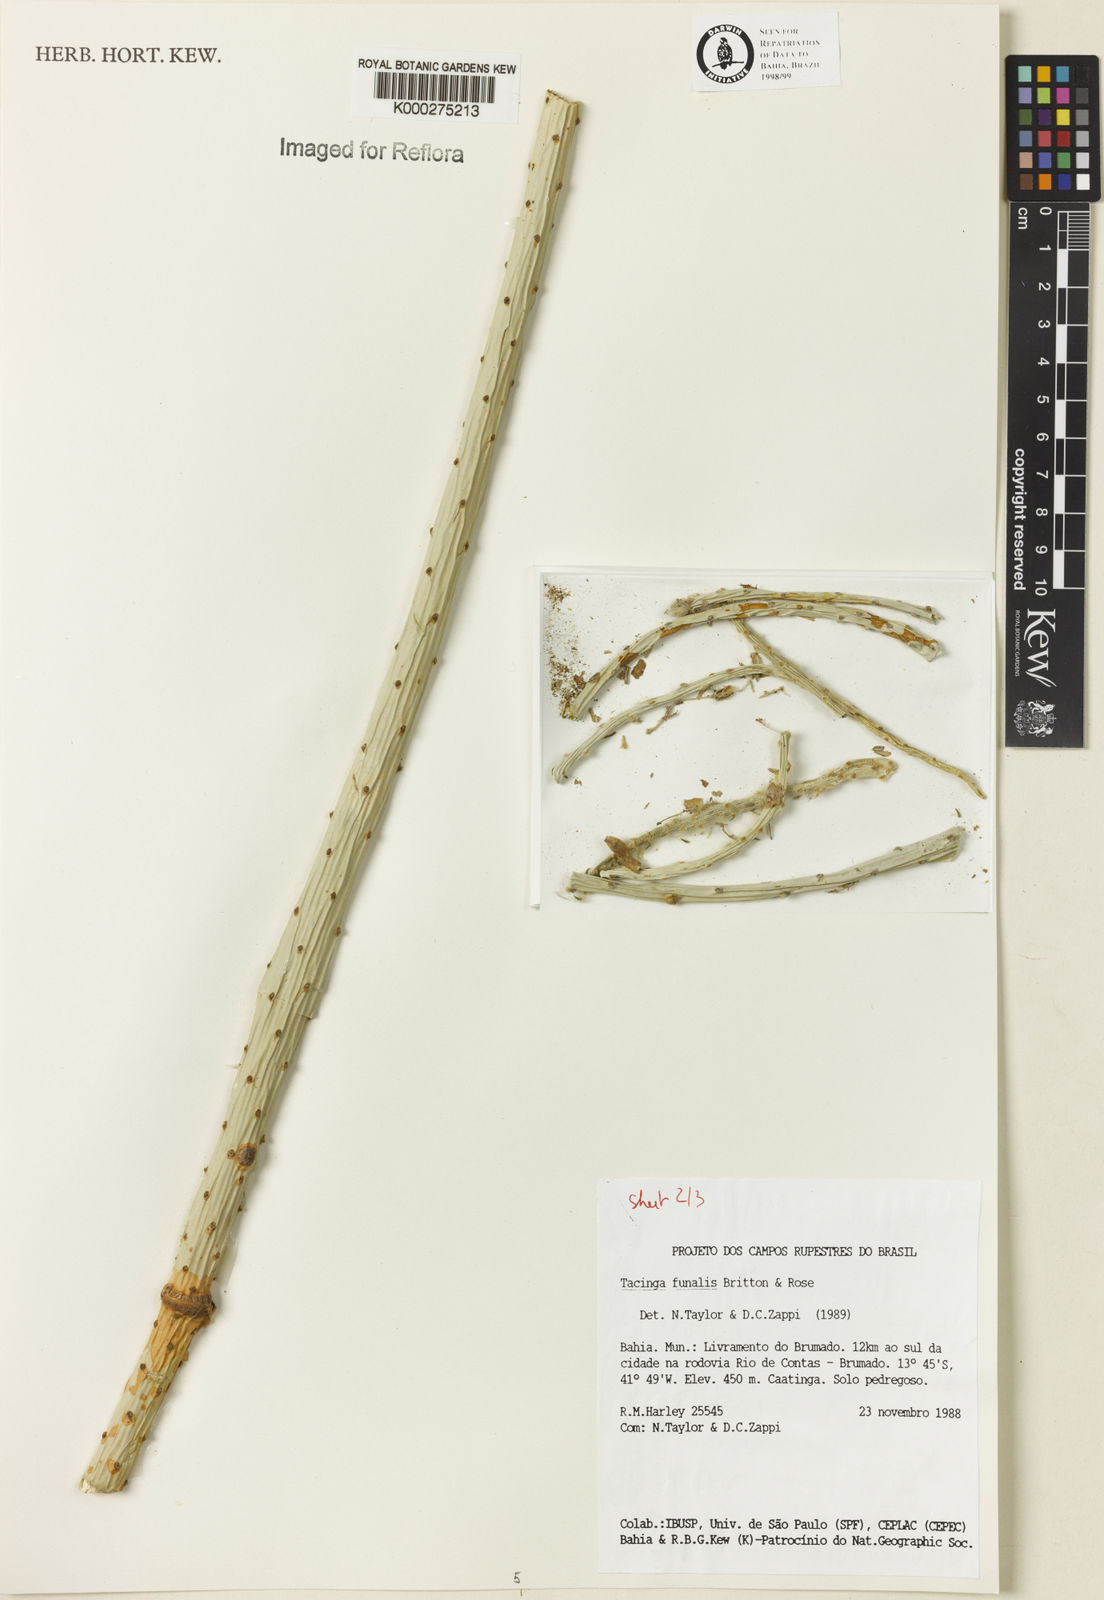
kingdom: Plantae
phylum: Tracheophyta
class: Magnoliopsida
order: Caryophyllales
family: Cactaceae
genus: Tacinga
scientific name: Tacinga funalis
